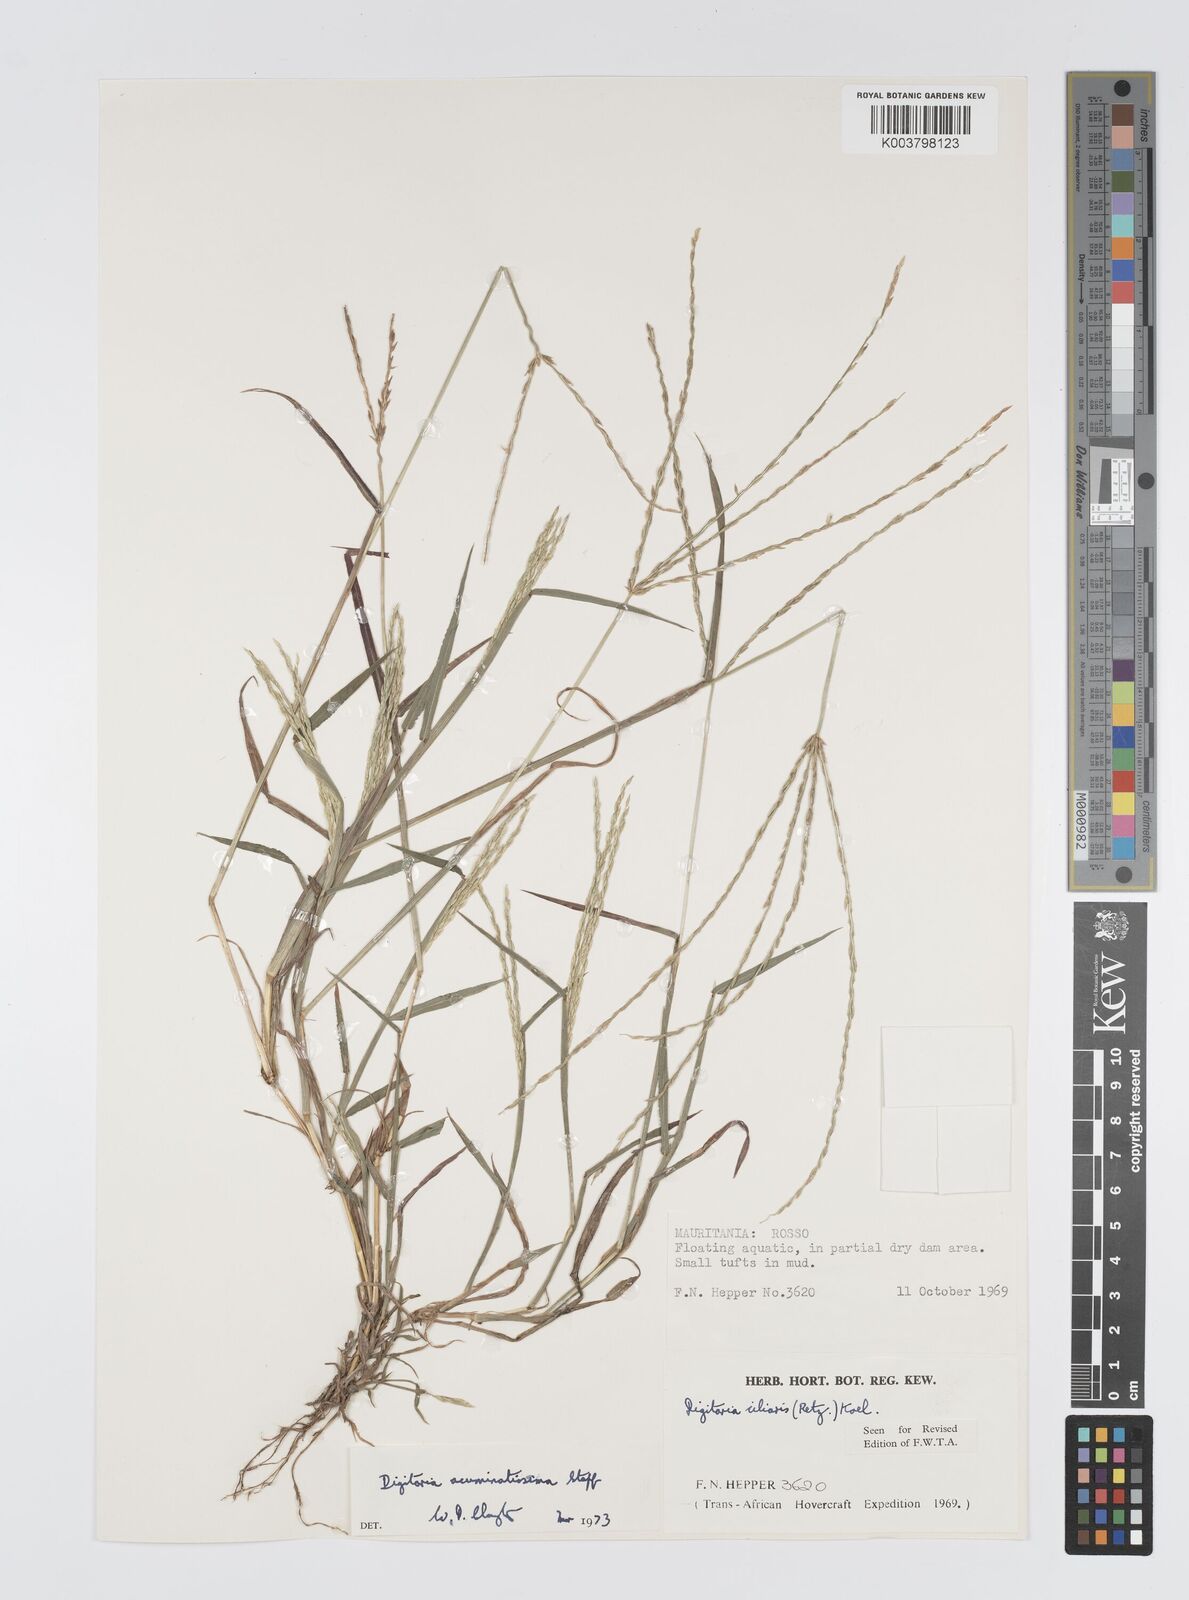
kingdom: Plantae
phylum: Tracheophyta
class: Liliopsida
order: Poales
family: Poaceae
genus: Digitaria
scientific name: Digitaria
